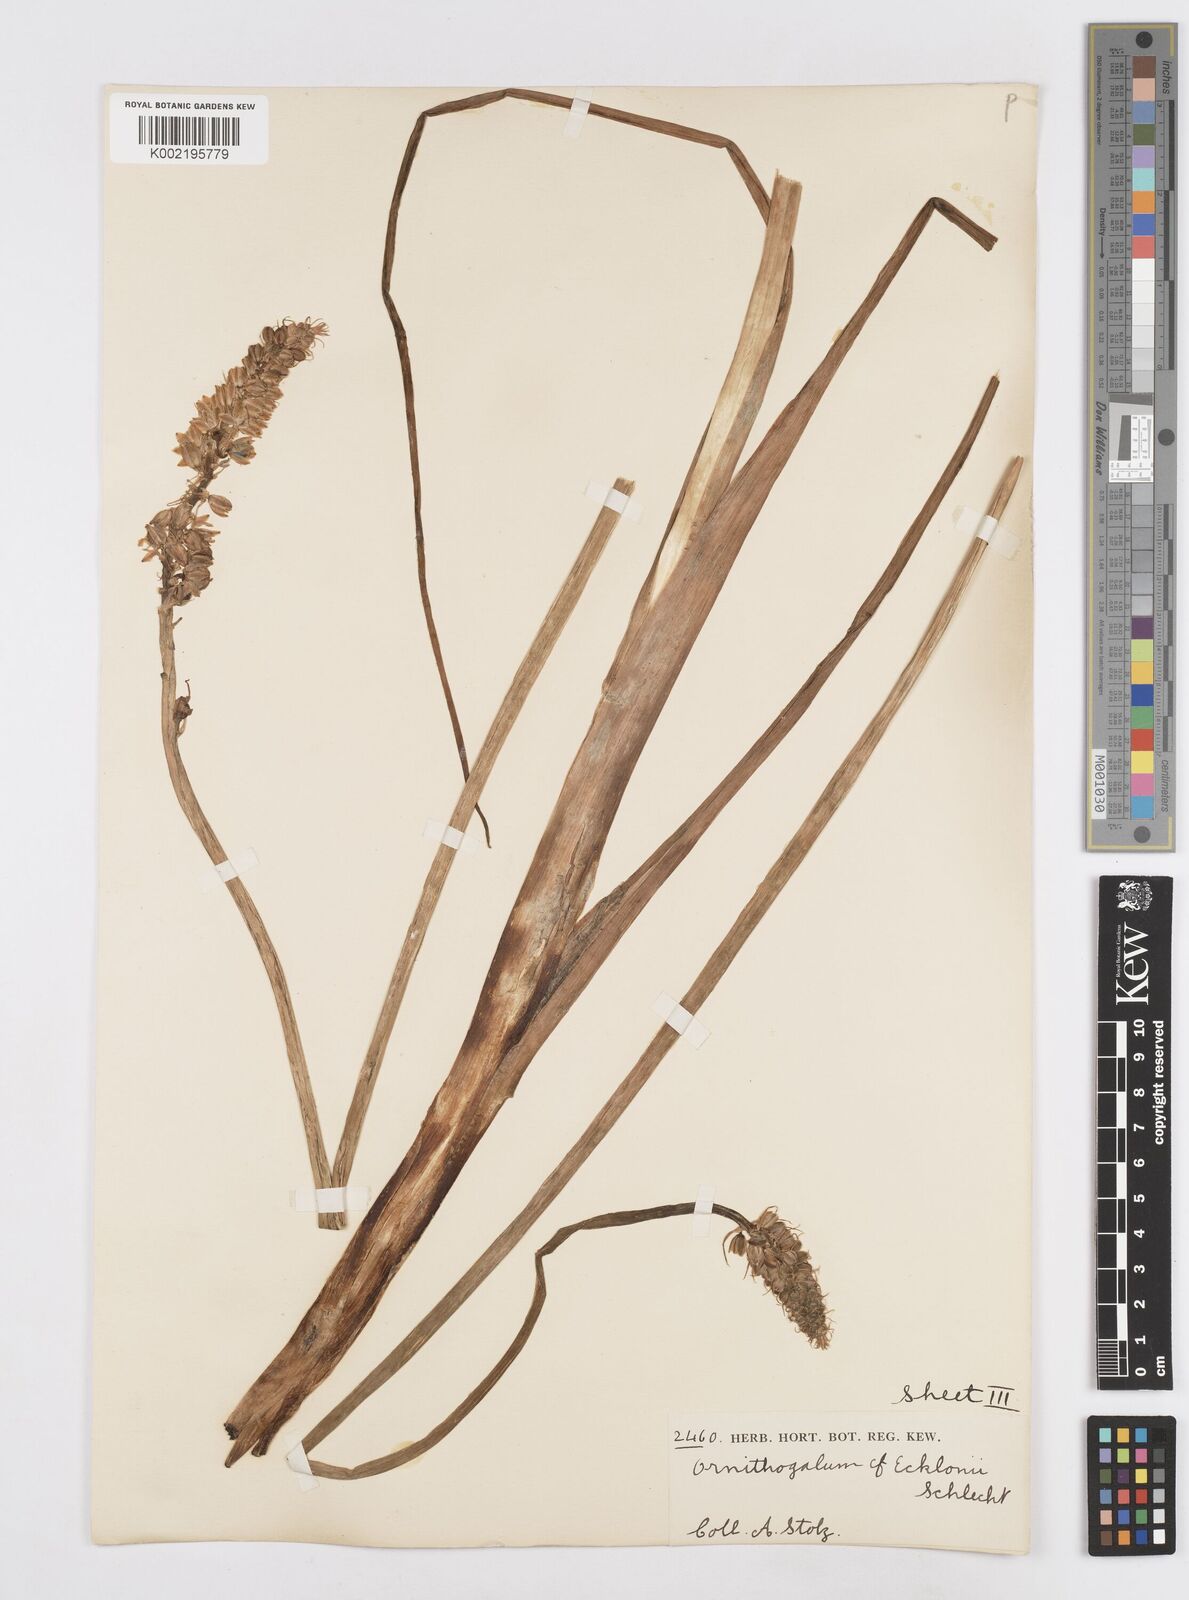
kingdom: Plantae
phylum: Tracheophyta
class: Liliopsida
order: Asparagales
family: Asparagaceae
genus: Albuca
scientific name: Albuca virens
